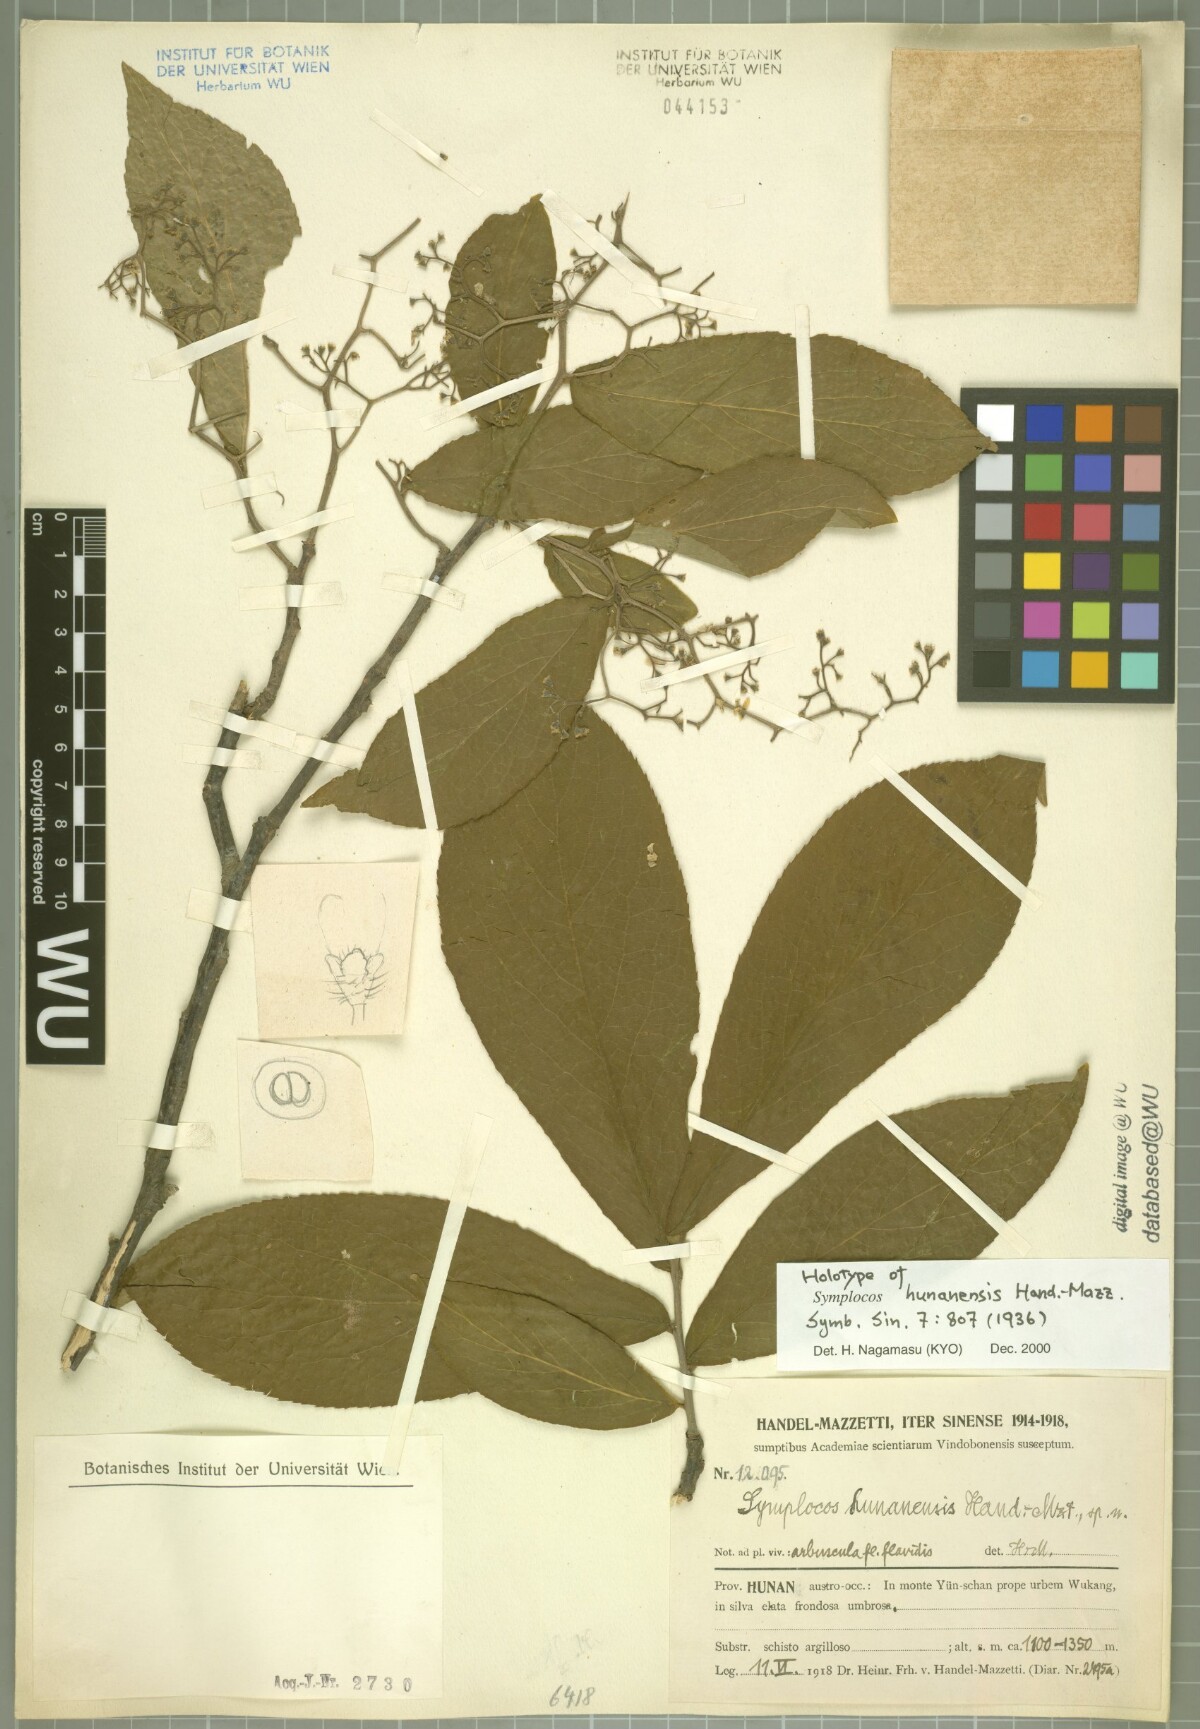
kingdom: Plantae
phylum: Tracheophyta
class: Magnoliopsida
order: Ericales
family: Symplocaceae
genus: Symplocos
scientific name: Symplocos paniculata
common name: Sapphire-berry
